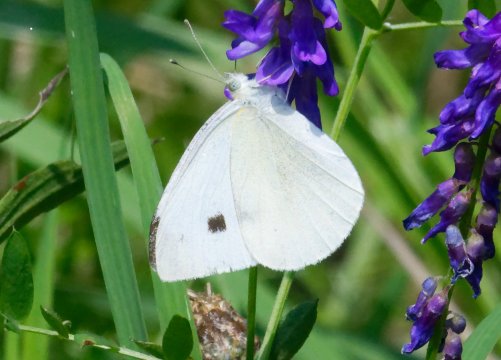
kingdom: Animalia
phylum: Arthropoda
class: Insecta
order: Lepidoptera
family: Pieridae
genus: Pieris
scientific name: Pieris rapae
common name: Cabbage White
